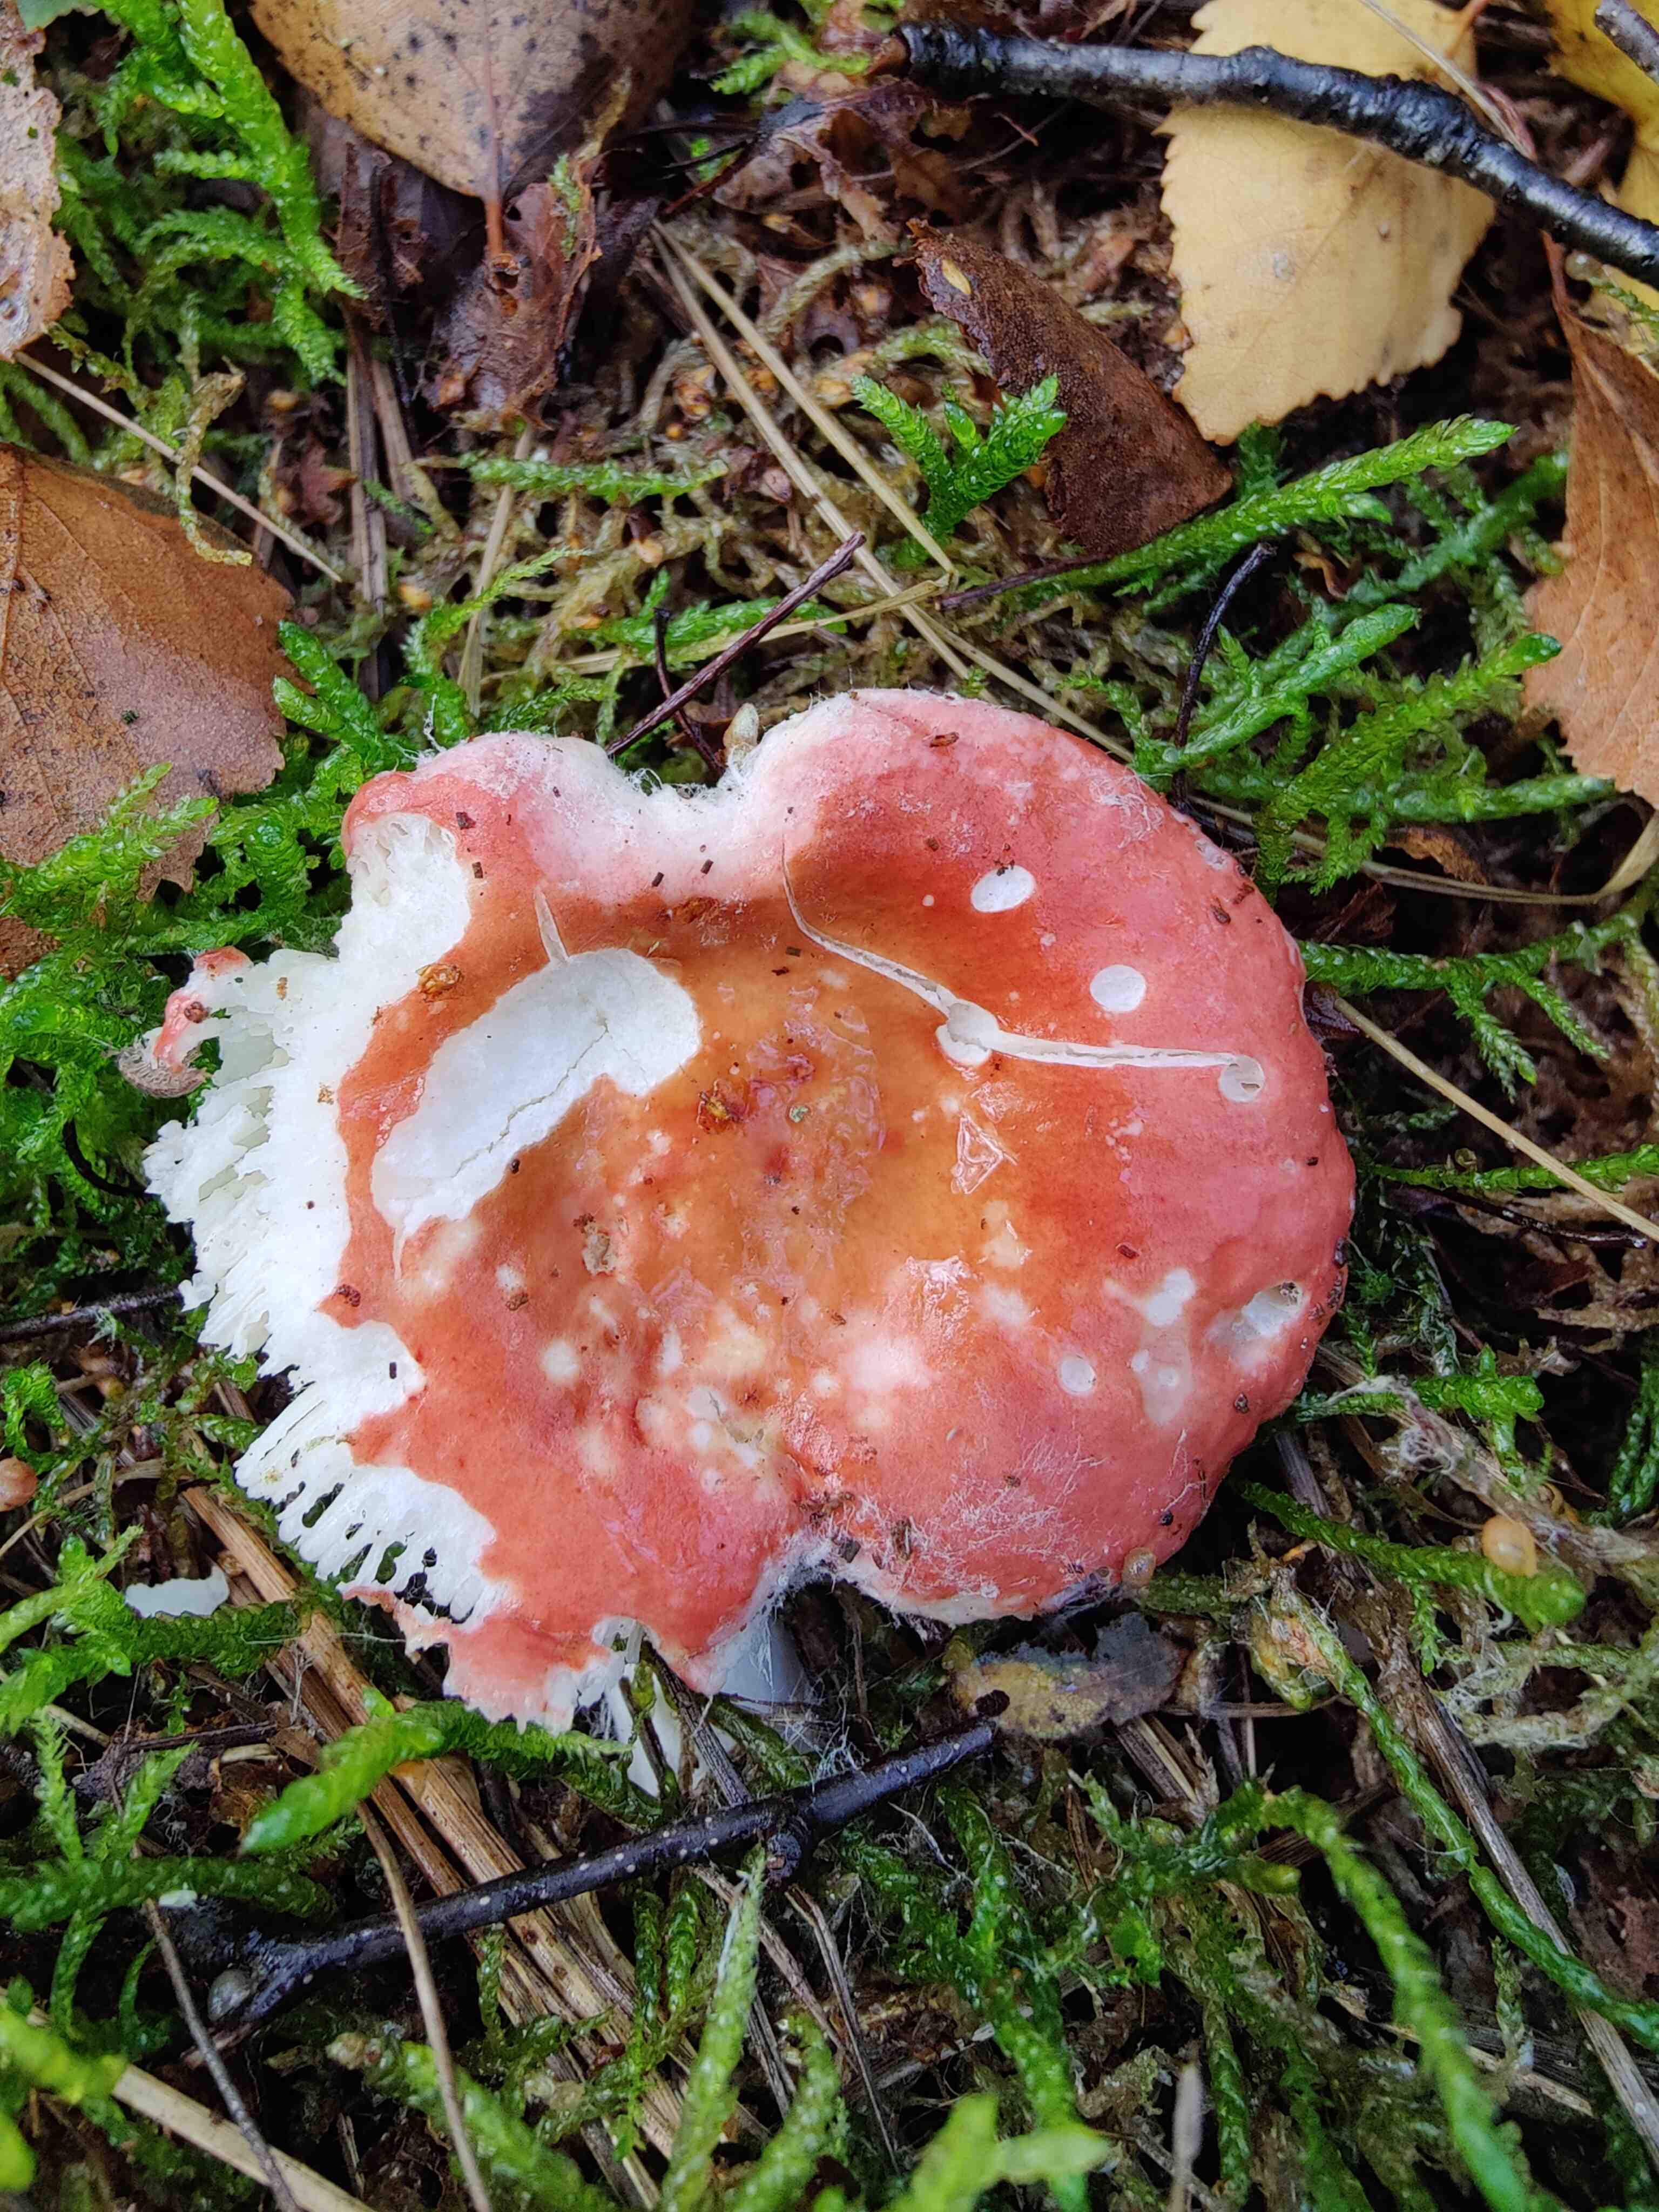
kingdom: Fungi
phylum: Basidiomycota
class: Agaricomycetes
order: Russulales
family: Russulaceae
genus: Russula
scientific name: Russula
